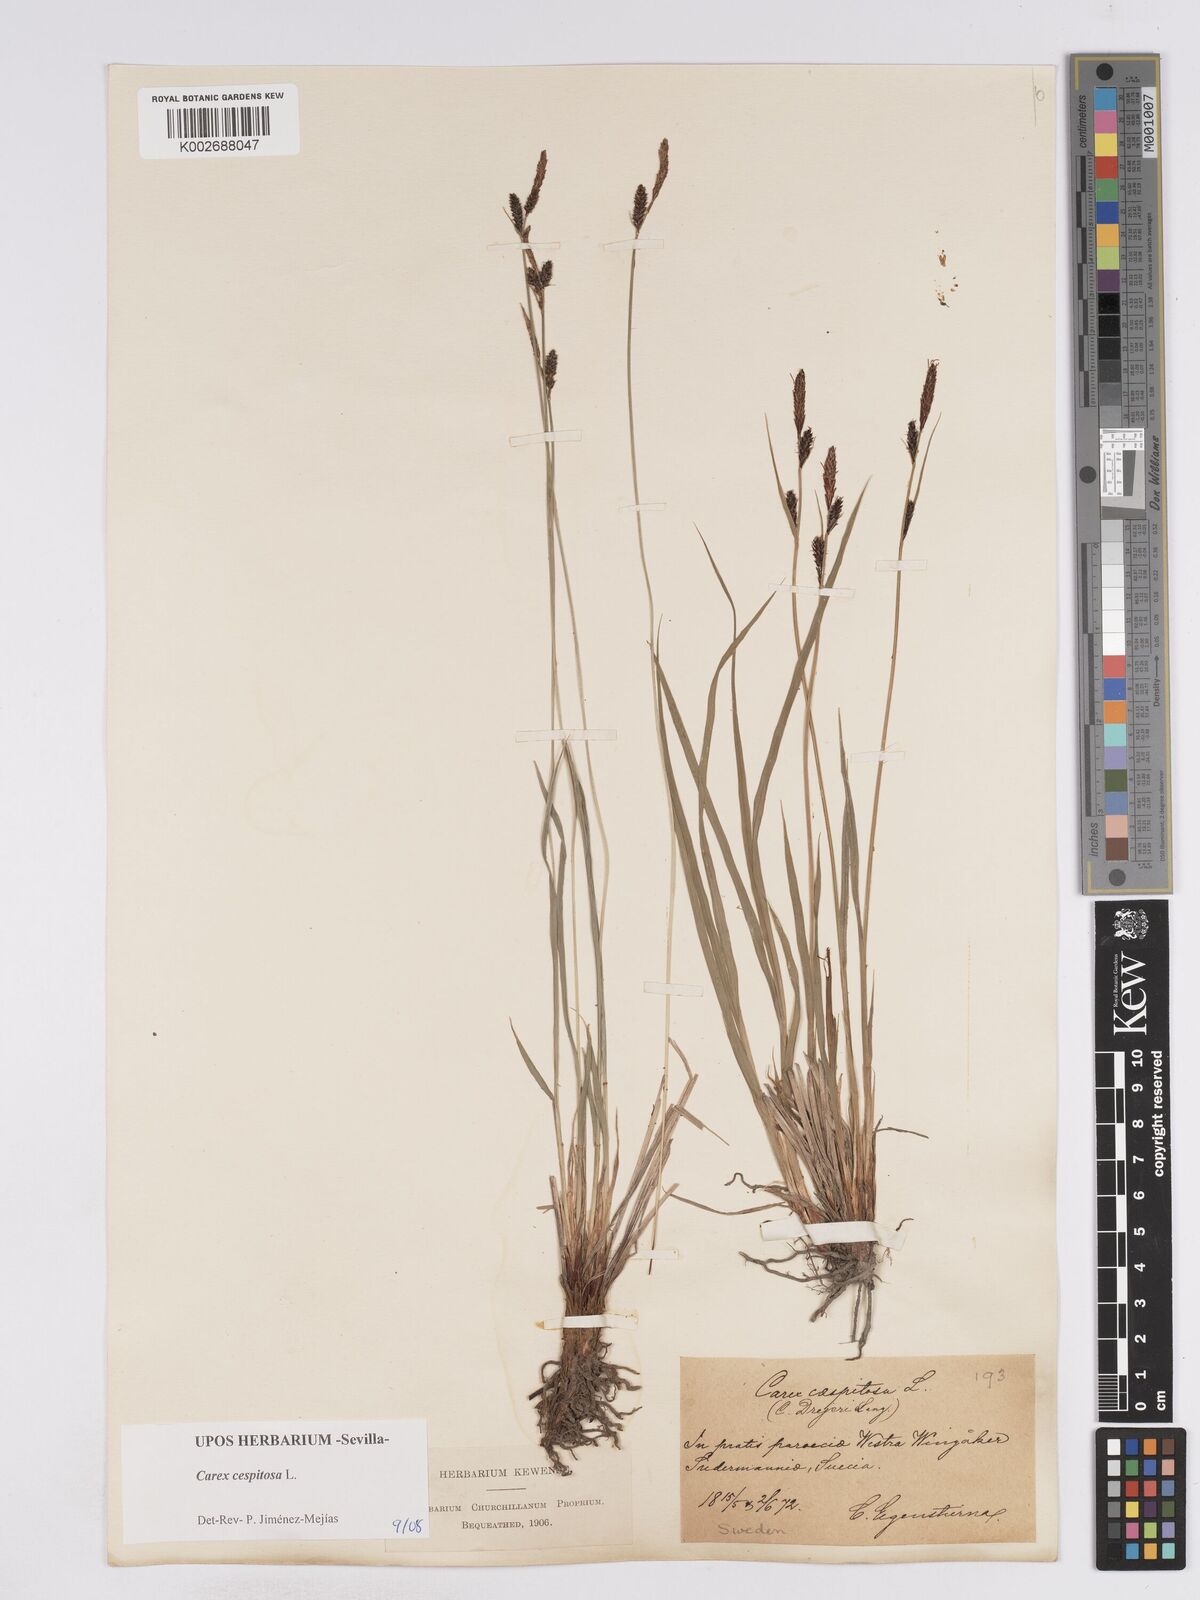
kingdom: Plantae
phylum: Tracheophyta
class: Liliopsida
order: Poales
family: Cyperaceae
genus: Carex
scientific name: Carex
